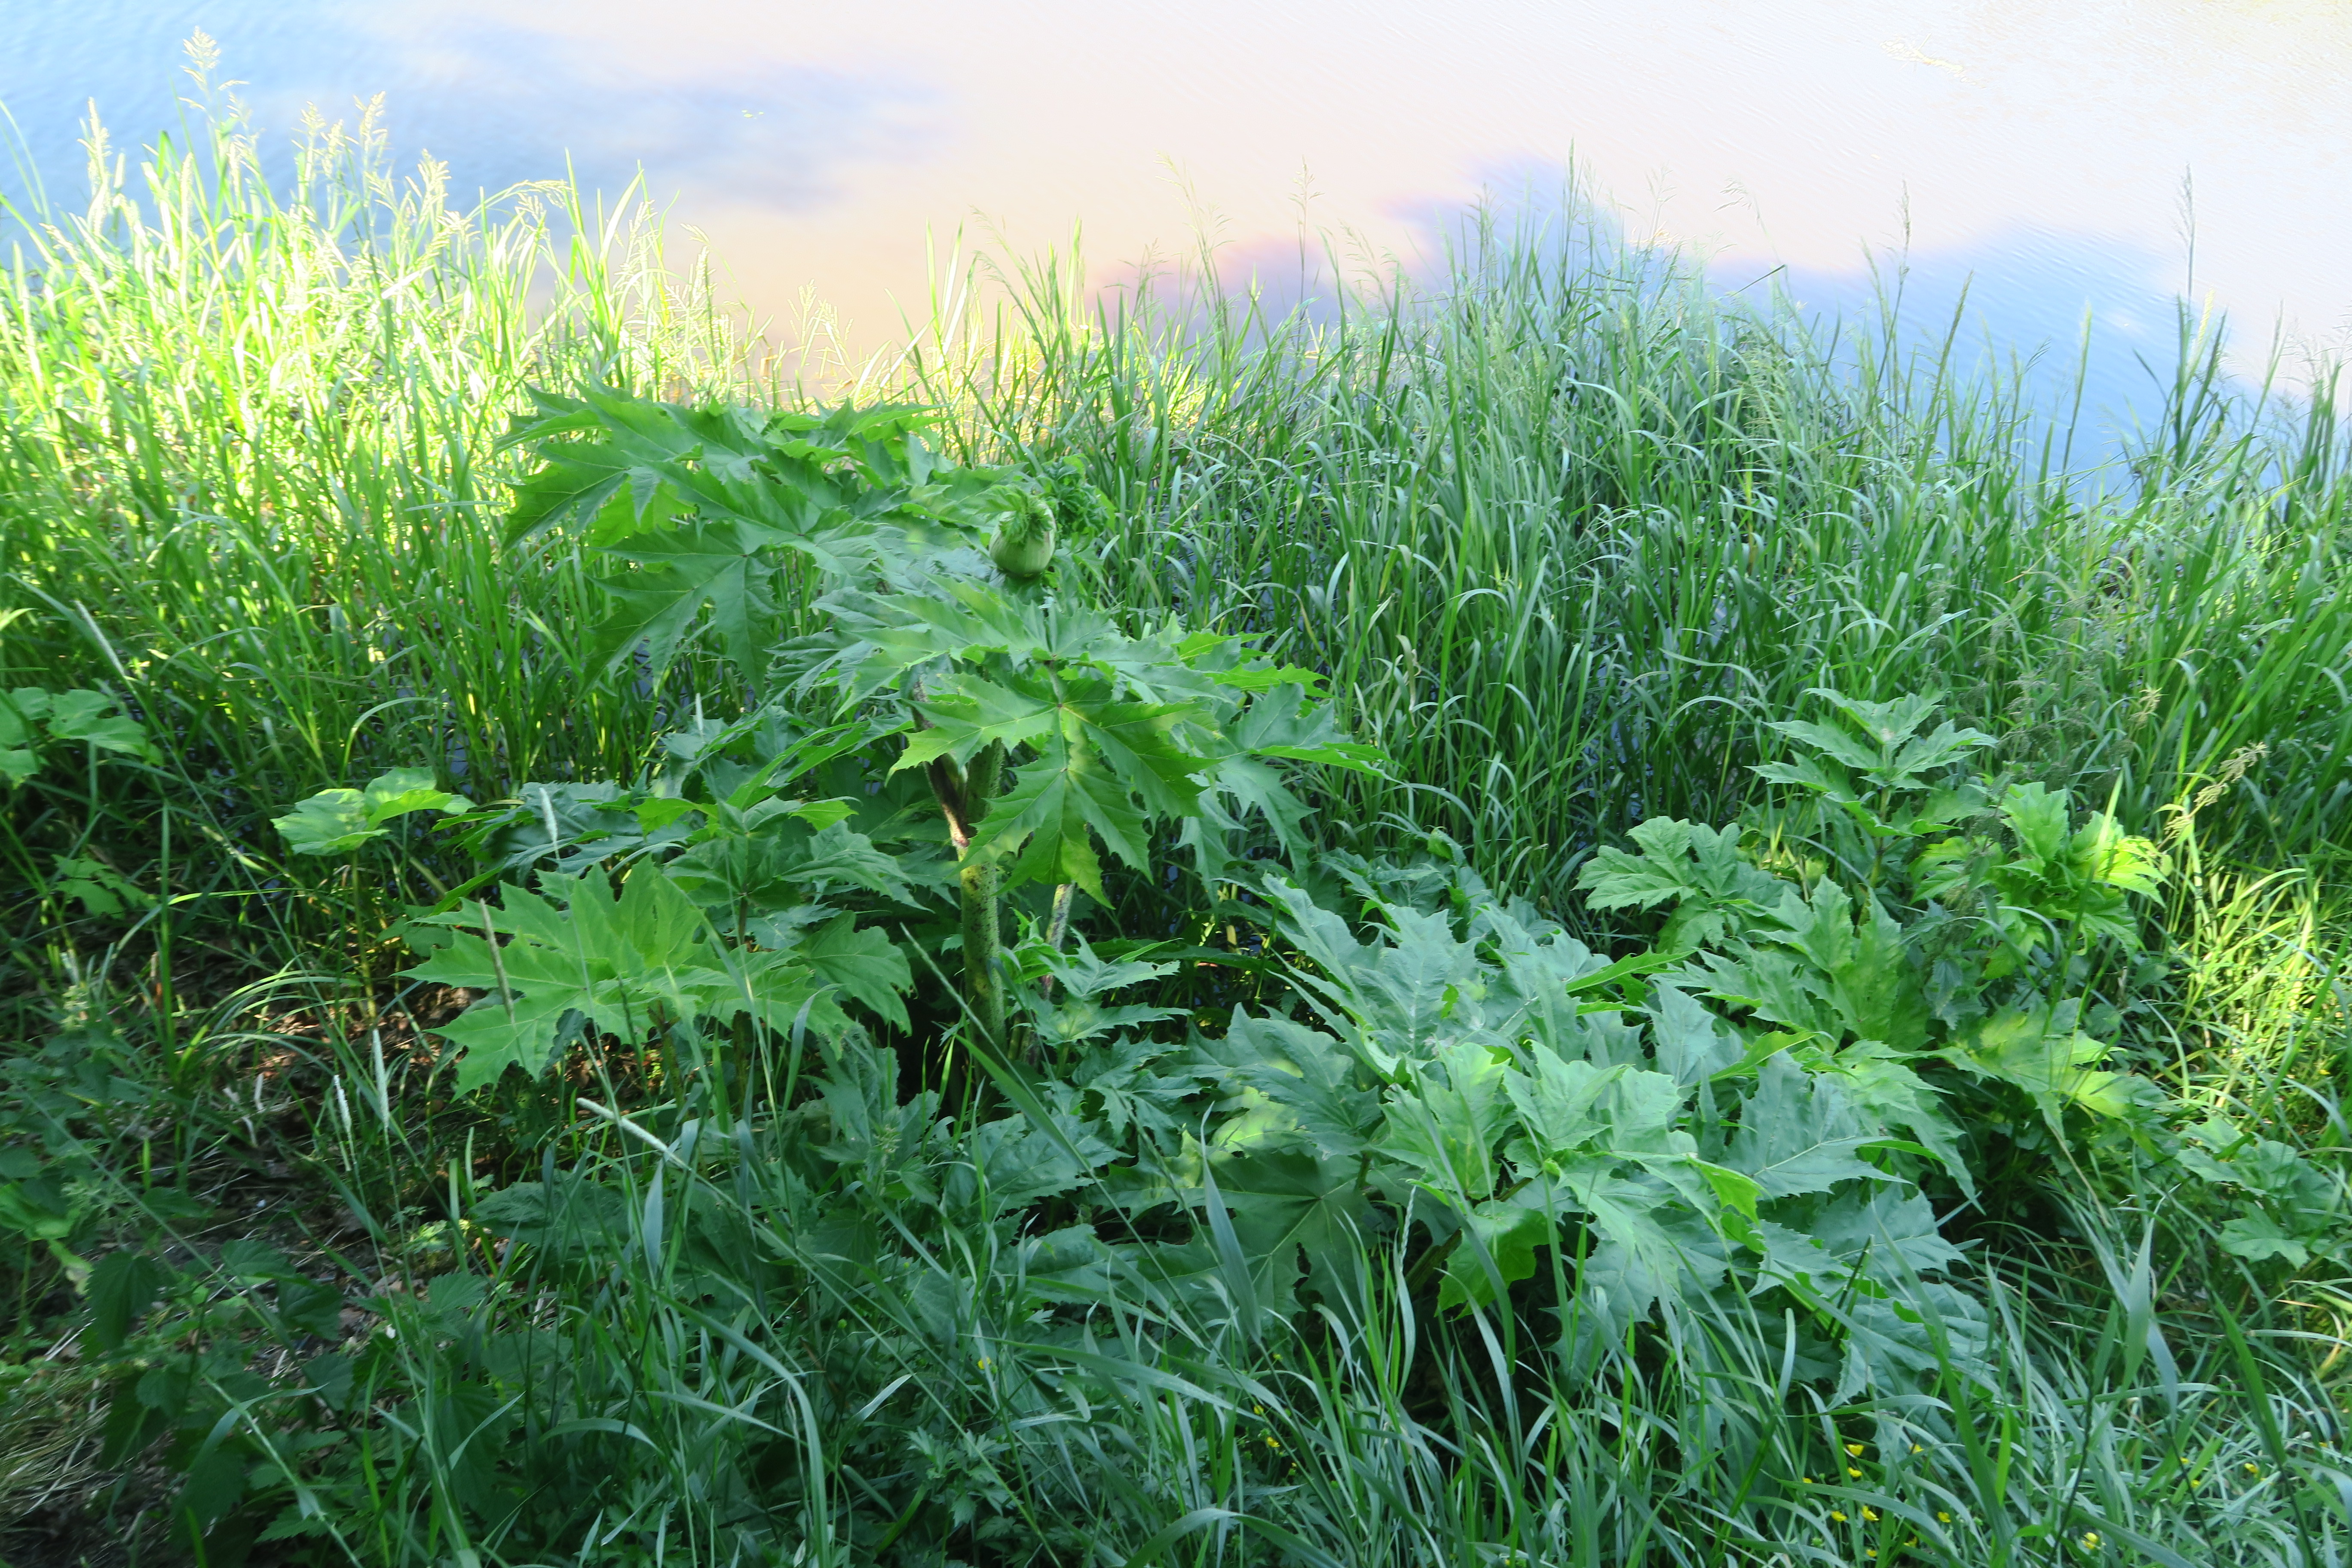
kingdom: Plantae
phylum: Tracheophyta
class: Magnoliopsida
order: Apiales
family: Apiaceae
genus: Heracleum
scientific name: Heracleum
